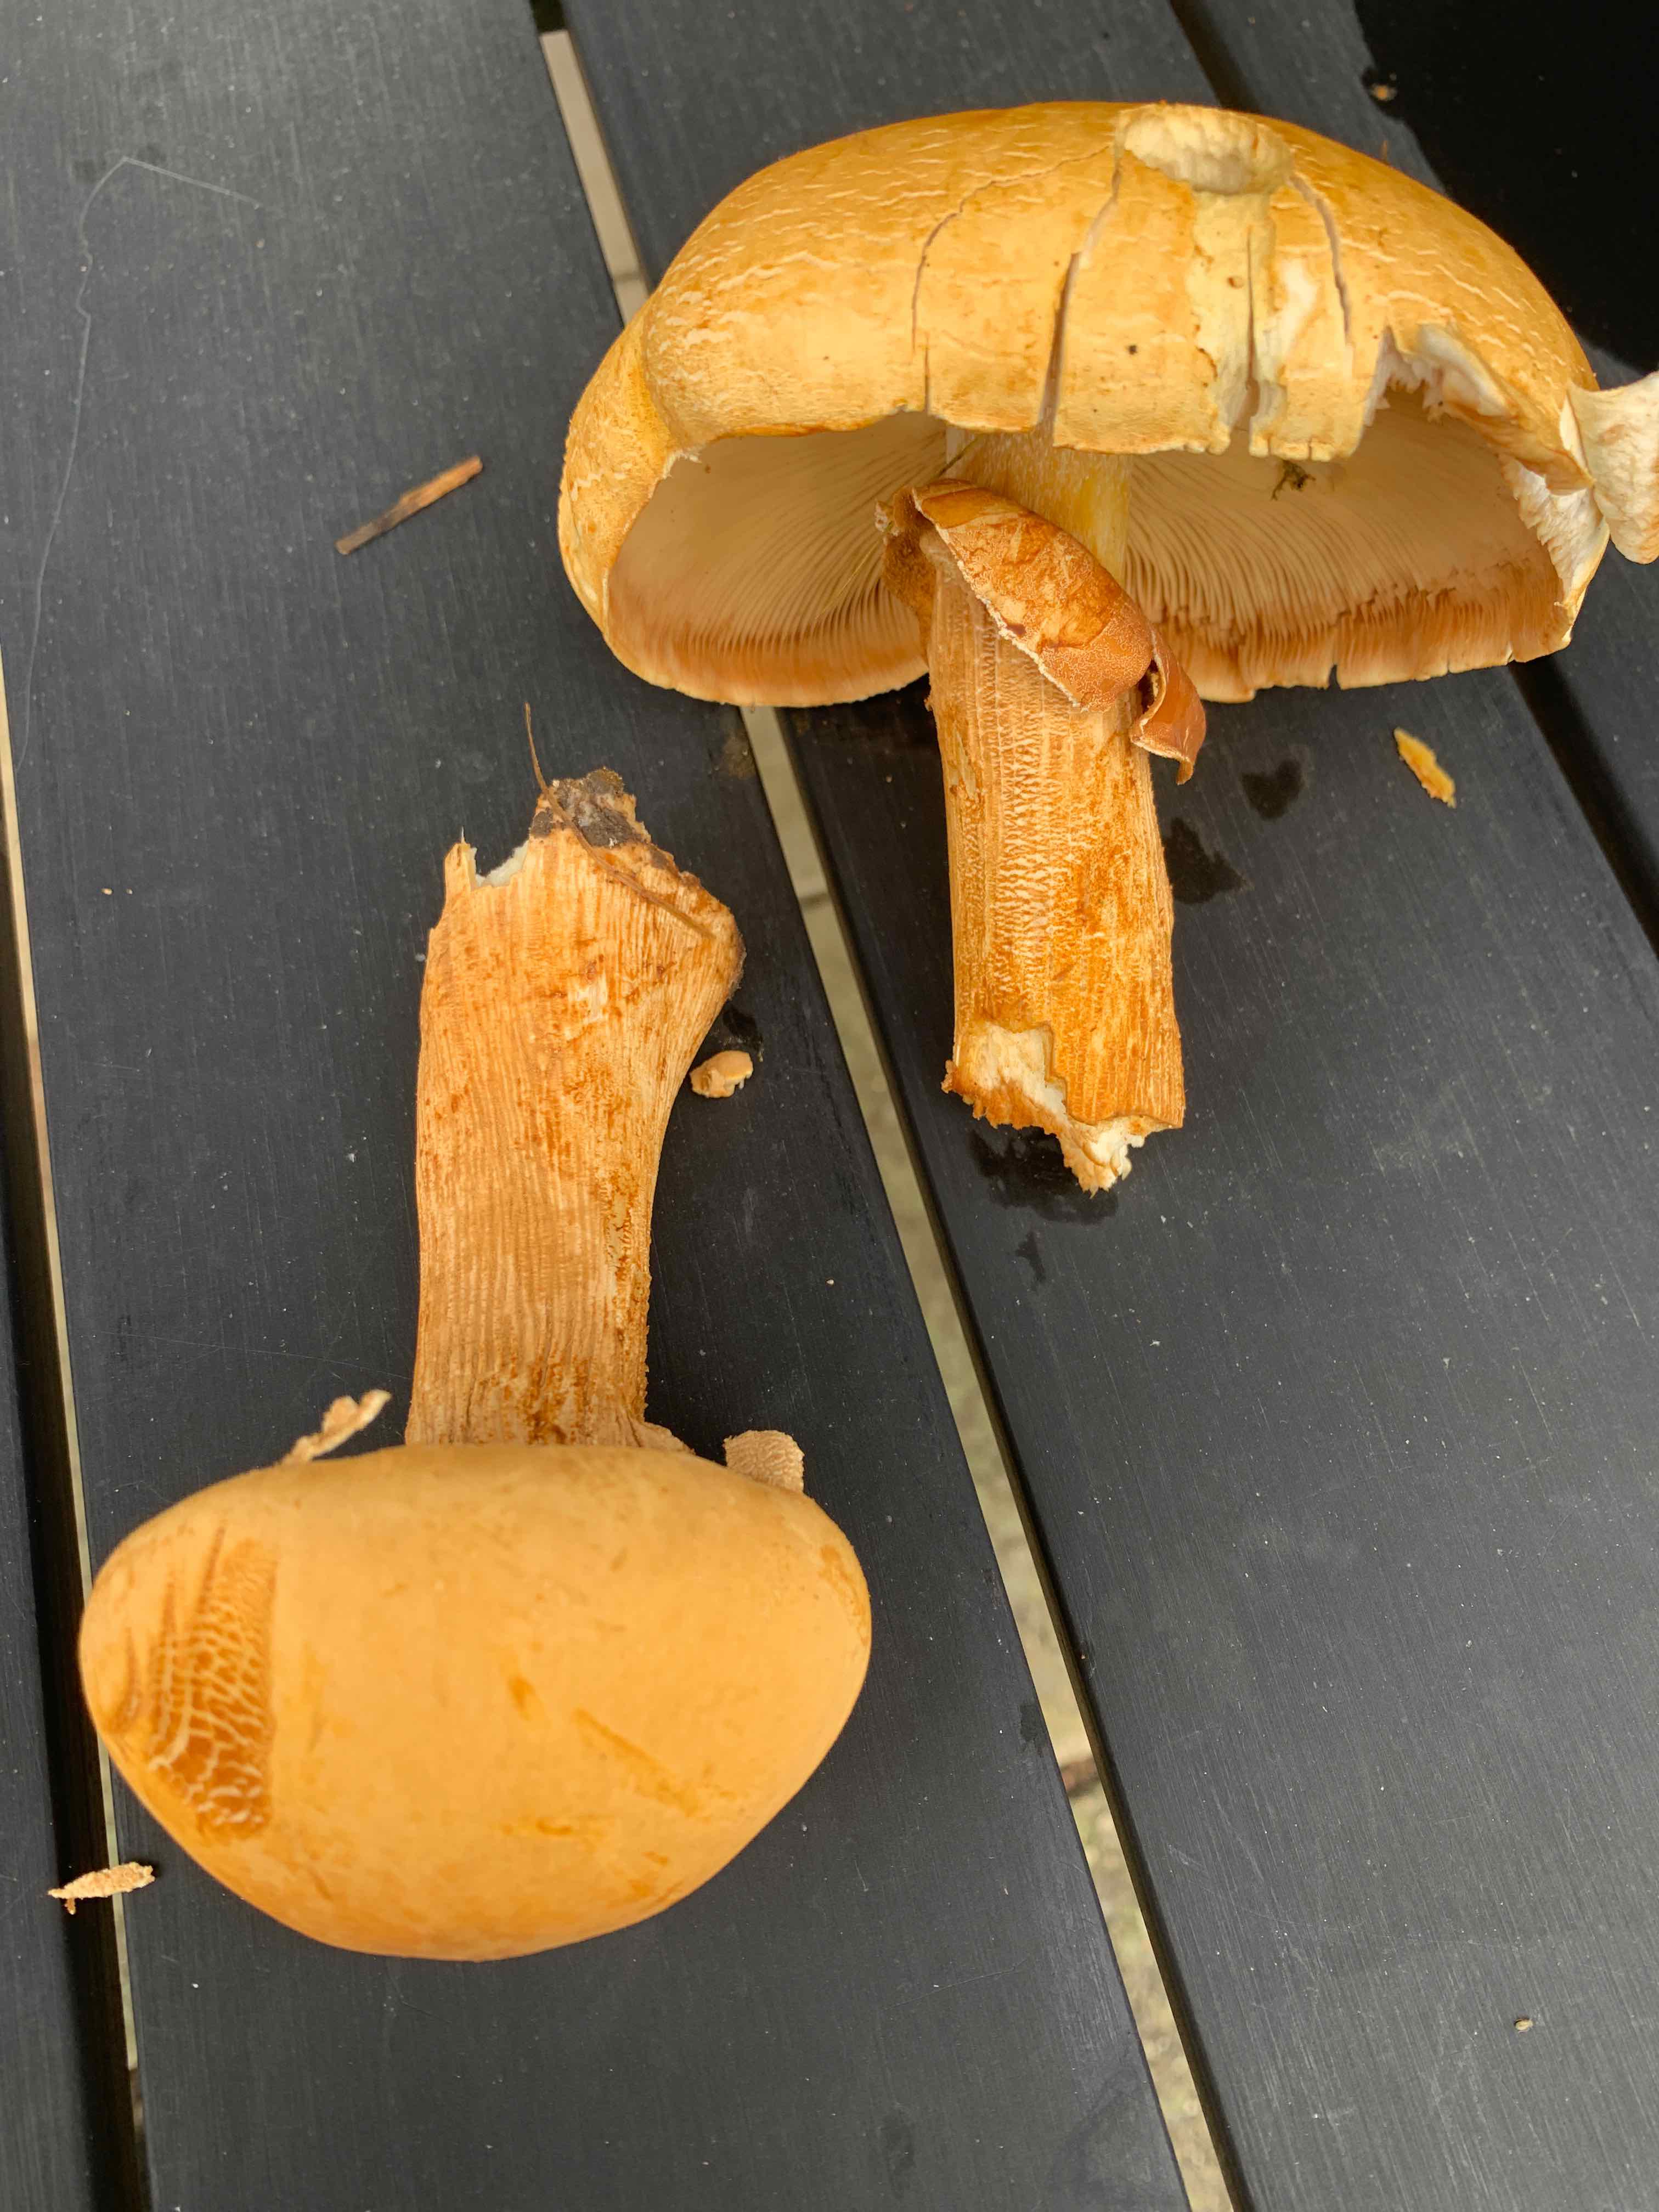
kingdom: Fungi
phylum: Basidiomycota
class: Agaricomycetes
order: Agaricales
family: Tricholomataceae
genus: Phaeolepiota
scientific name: Phaeolepiota aurea
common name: gyldenhat
